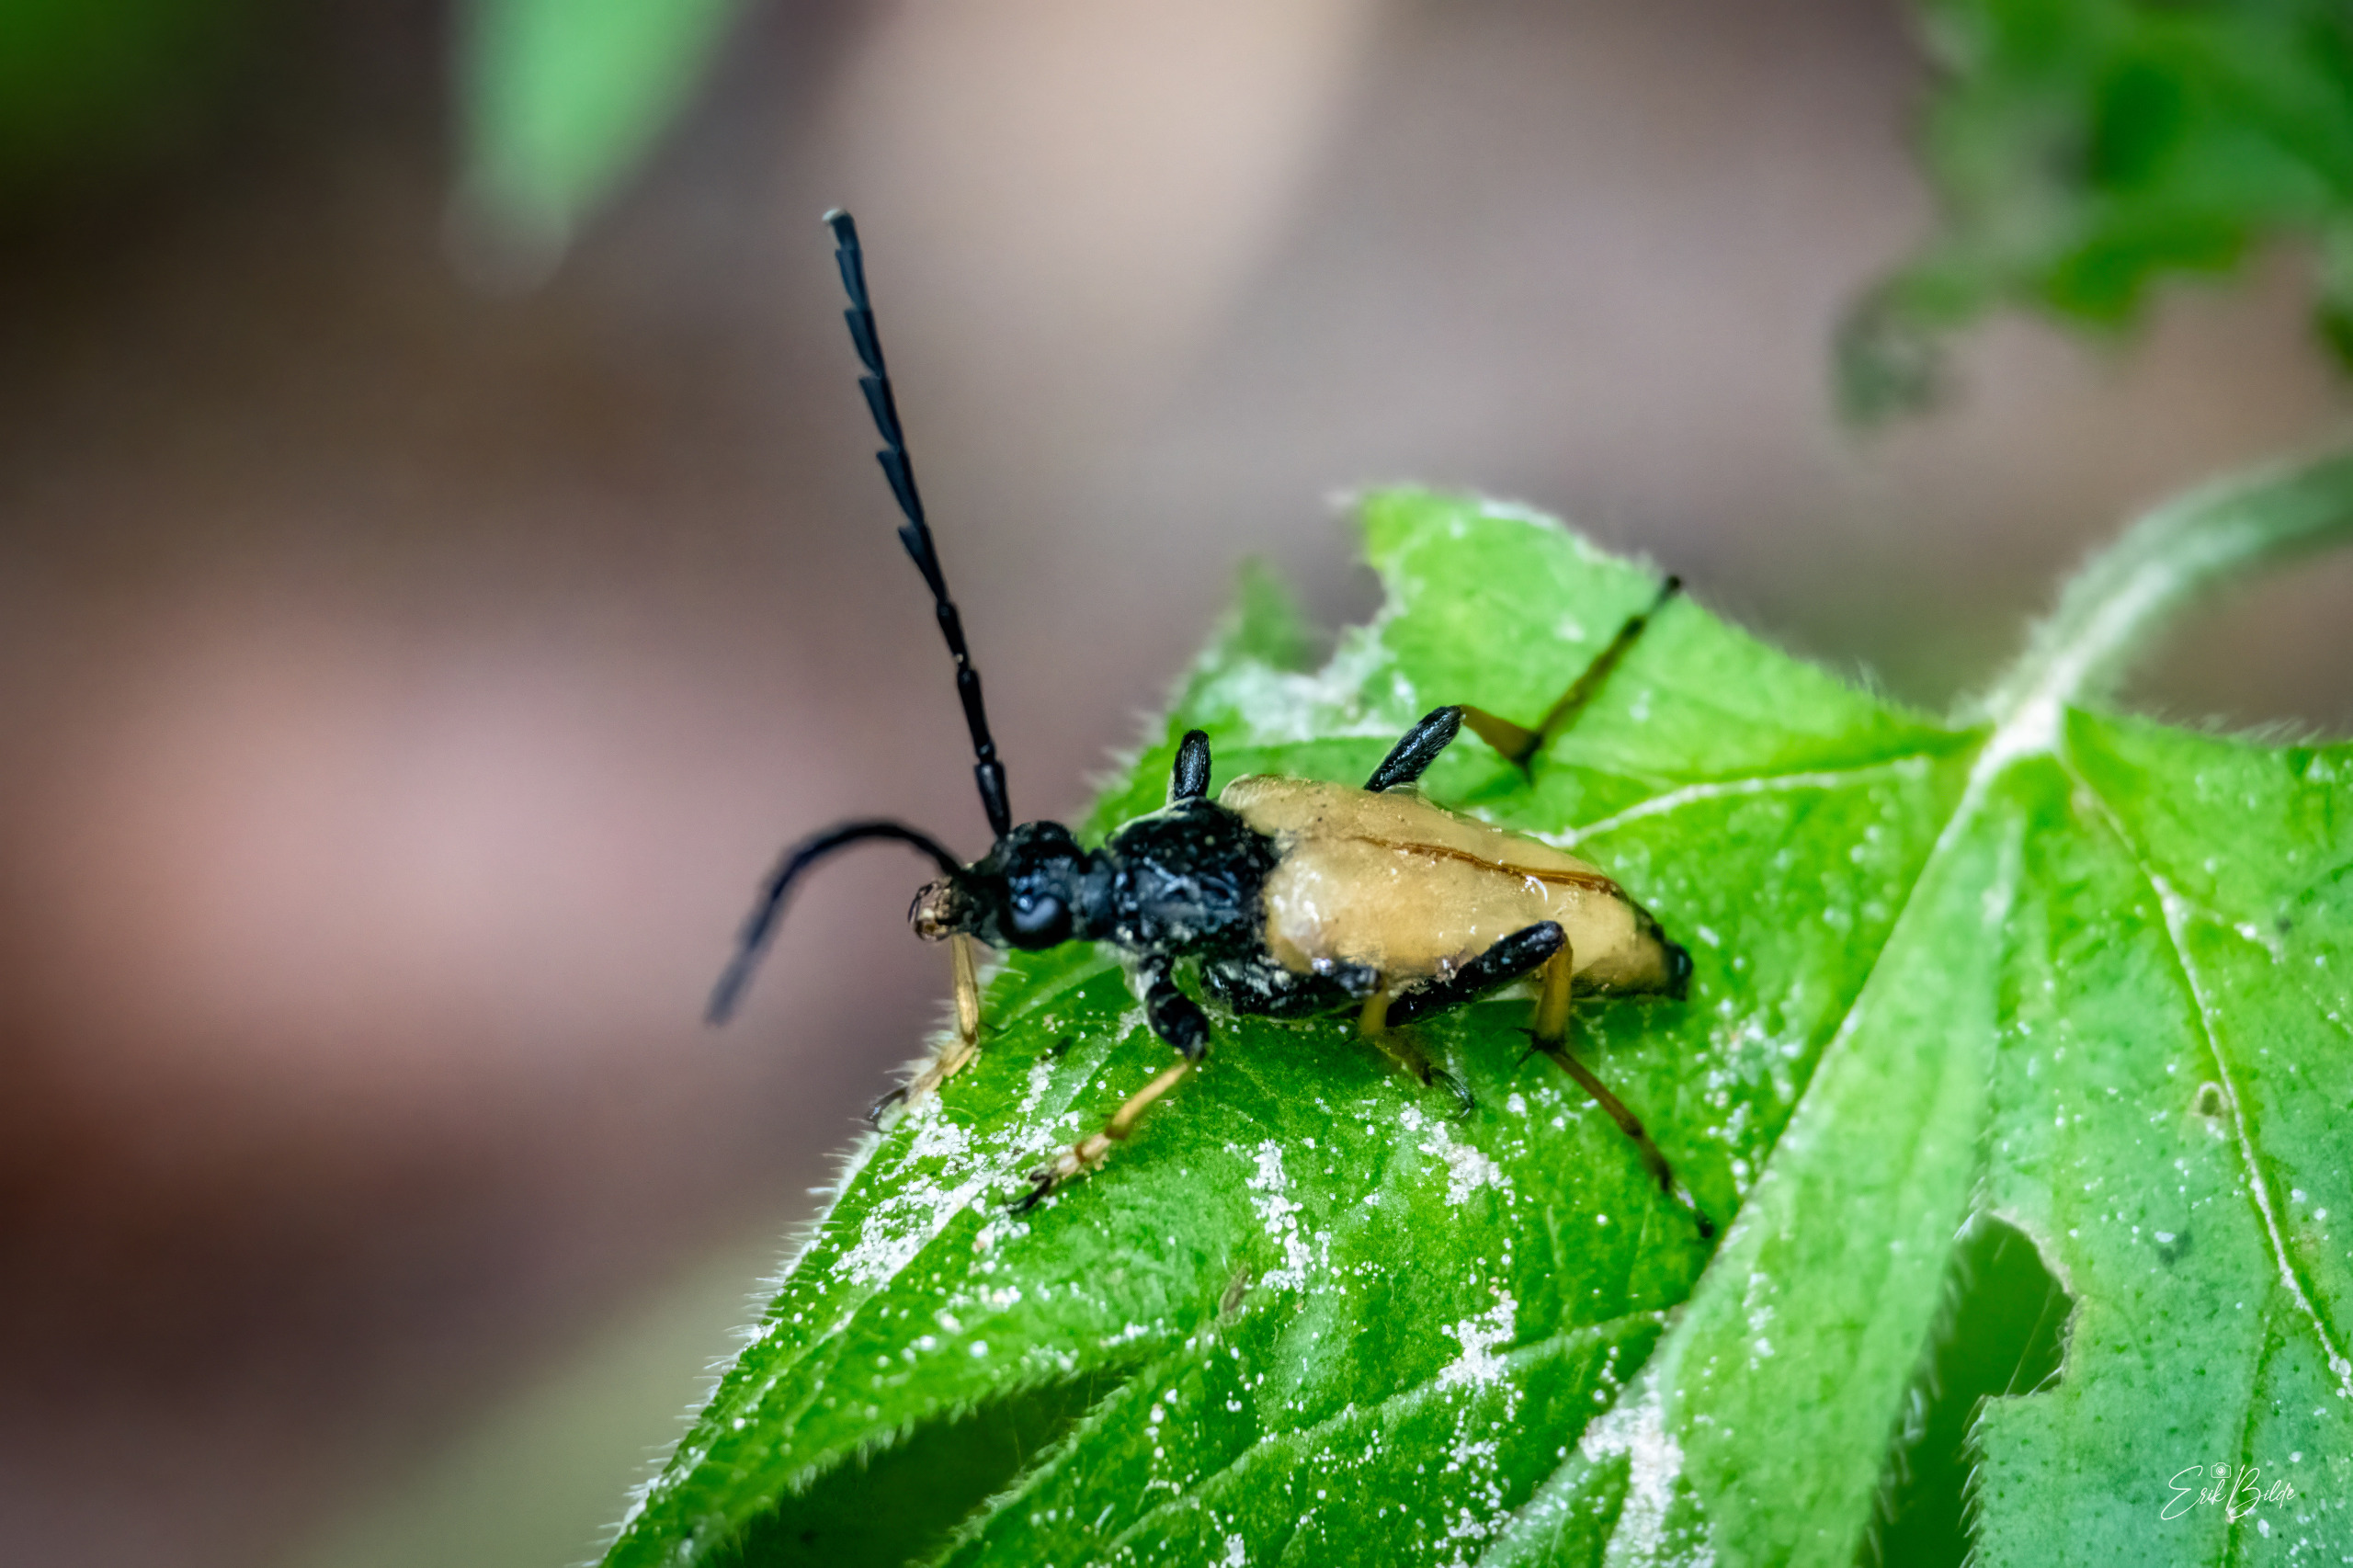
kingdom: Animalia
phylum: Arthropoda
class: Insecta
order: Coleoptera
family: Cerambycidae
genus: Stictoleptura
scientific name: Stictoleptura rubra
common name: Rød blomsterbuk
